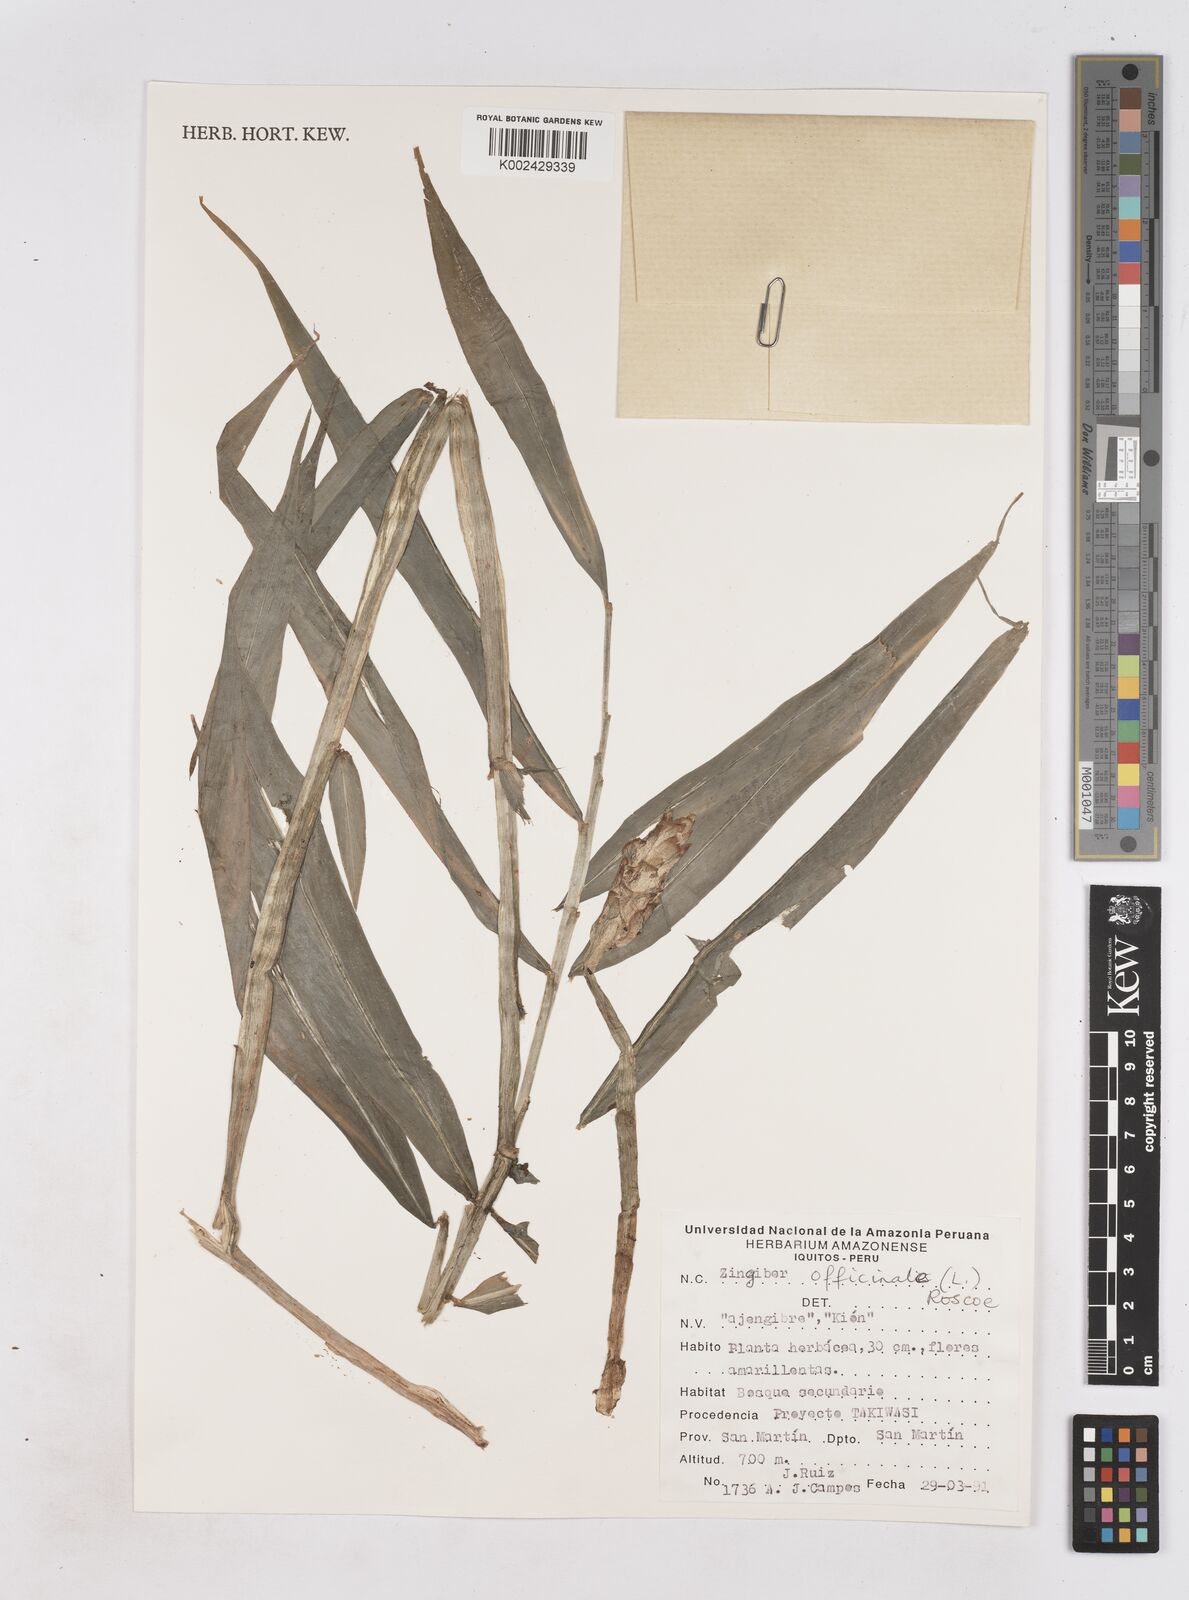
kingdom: Plantae
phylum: Tracheophyta
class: Liliopsida
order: Zingiberales
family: Zingiberaceae
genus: Zingiber
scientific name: Zingiber officinale
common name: Ginger
